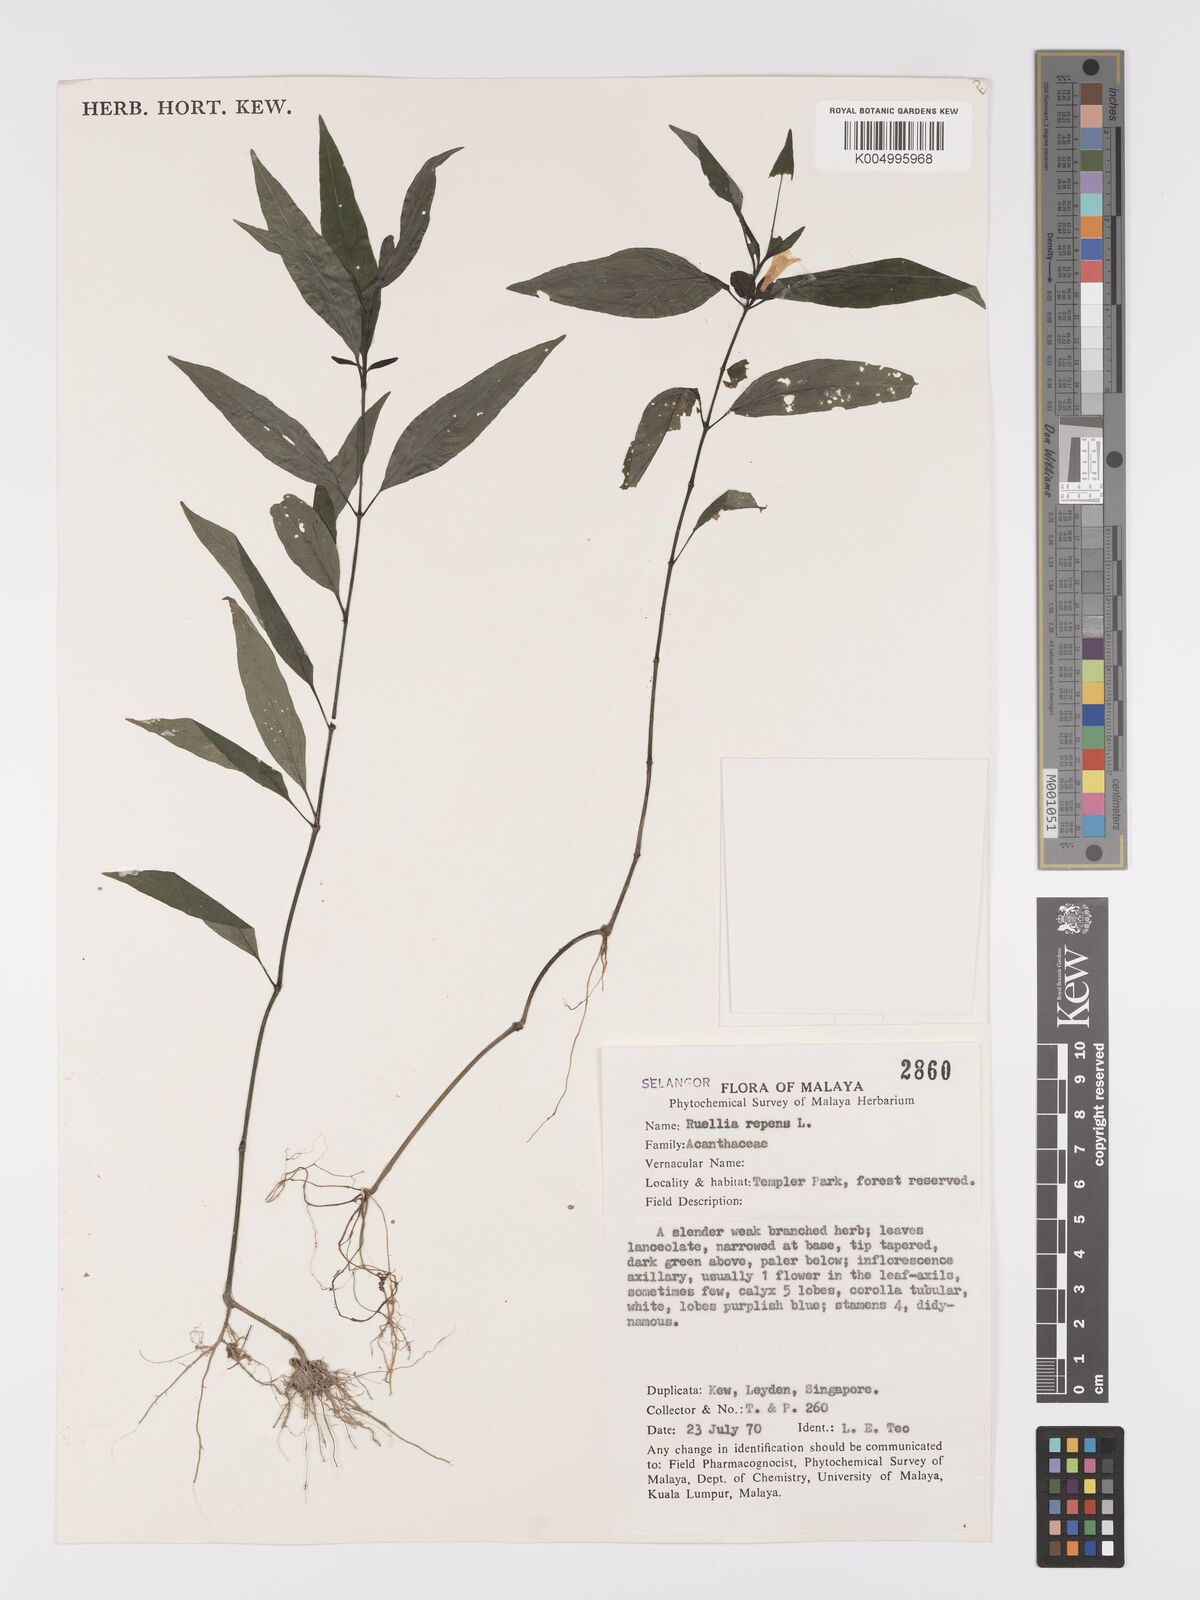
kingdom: Plantae
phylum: Tracheophyta
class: Magnoliopsida
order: Lamiales
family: Acanthaceae
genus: Ruellia
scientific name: Ruellia
